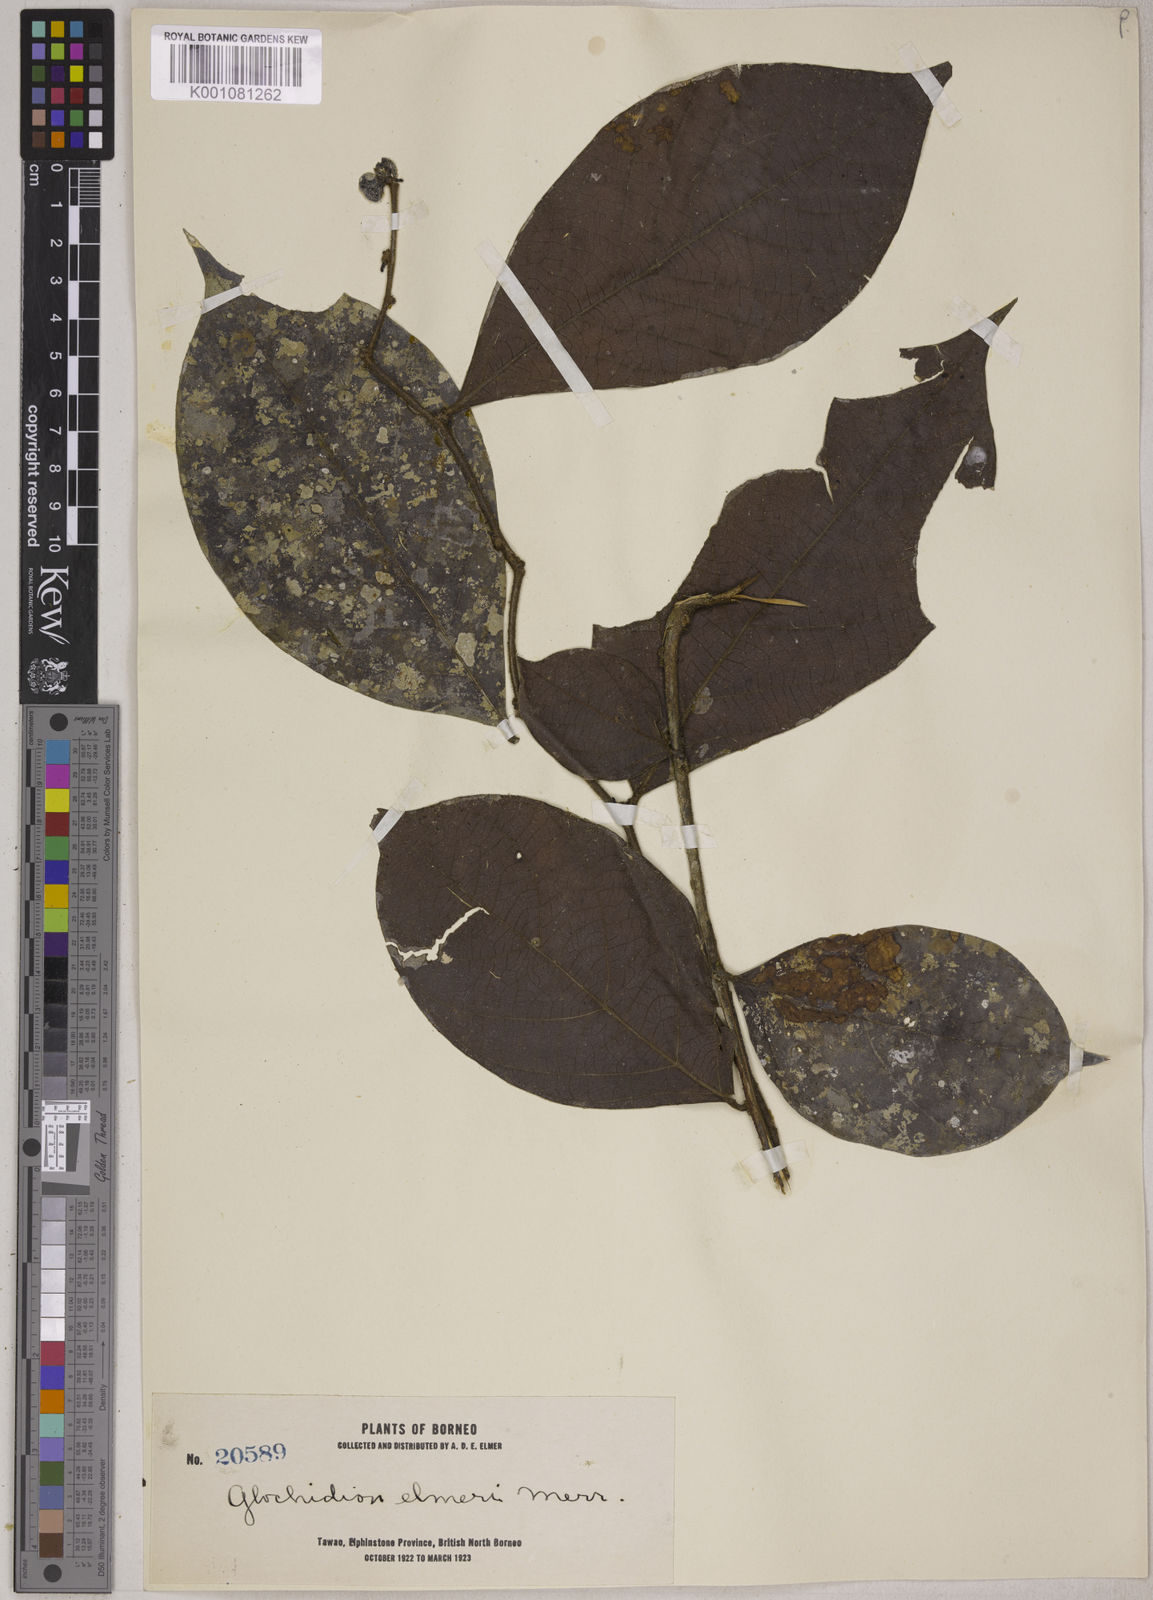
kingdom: Plantae
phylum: Tracheophyta
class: Magnoliopsida
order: Malpighiales
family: Phyllanthaceae
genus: Glochidion
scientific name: Glochidion elmeri
